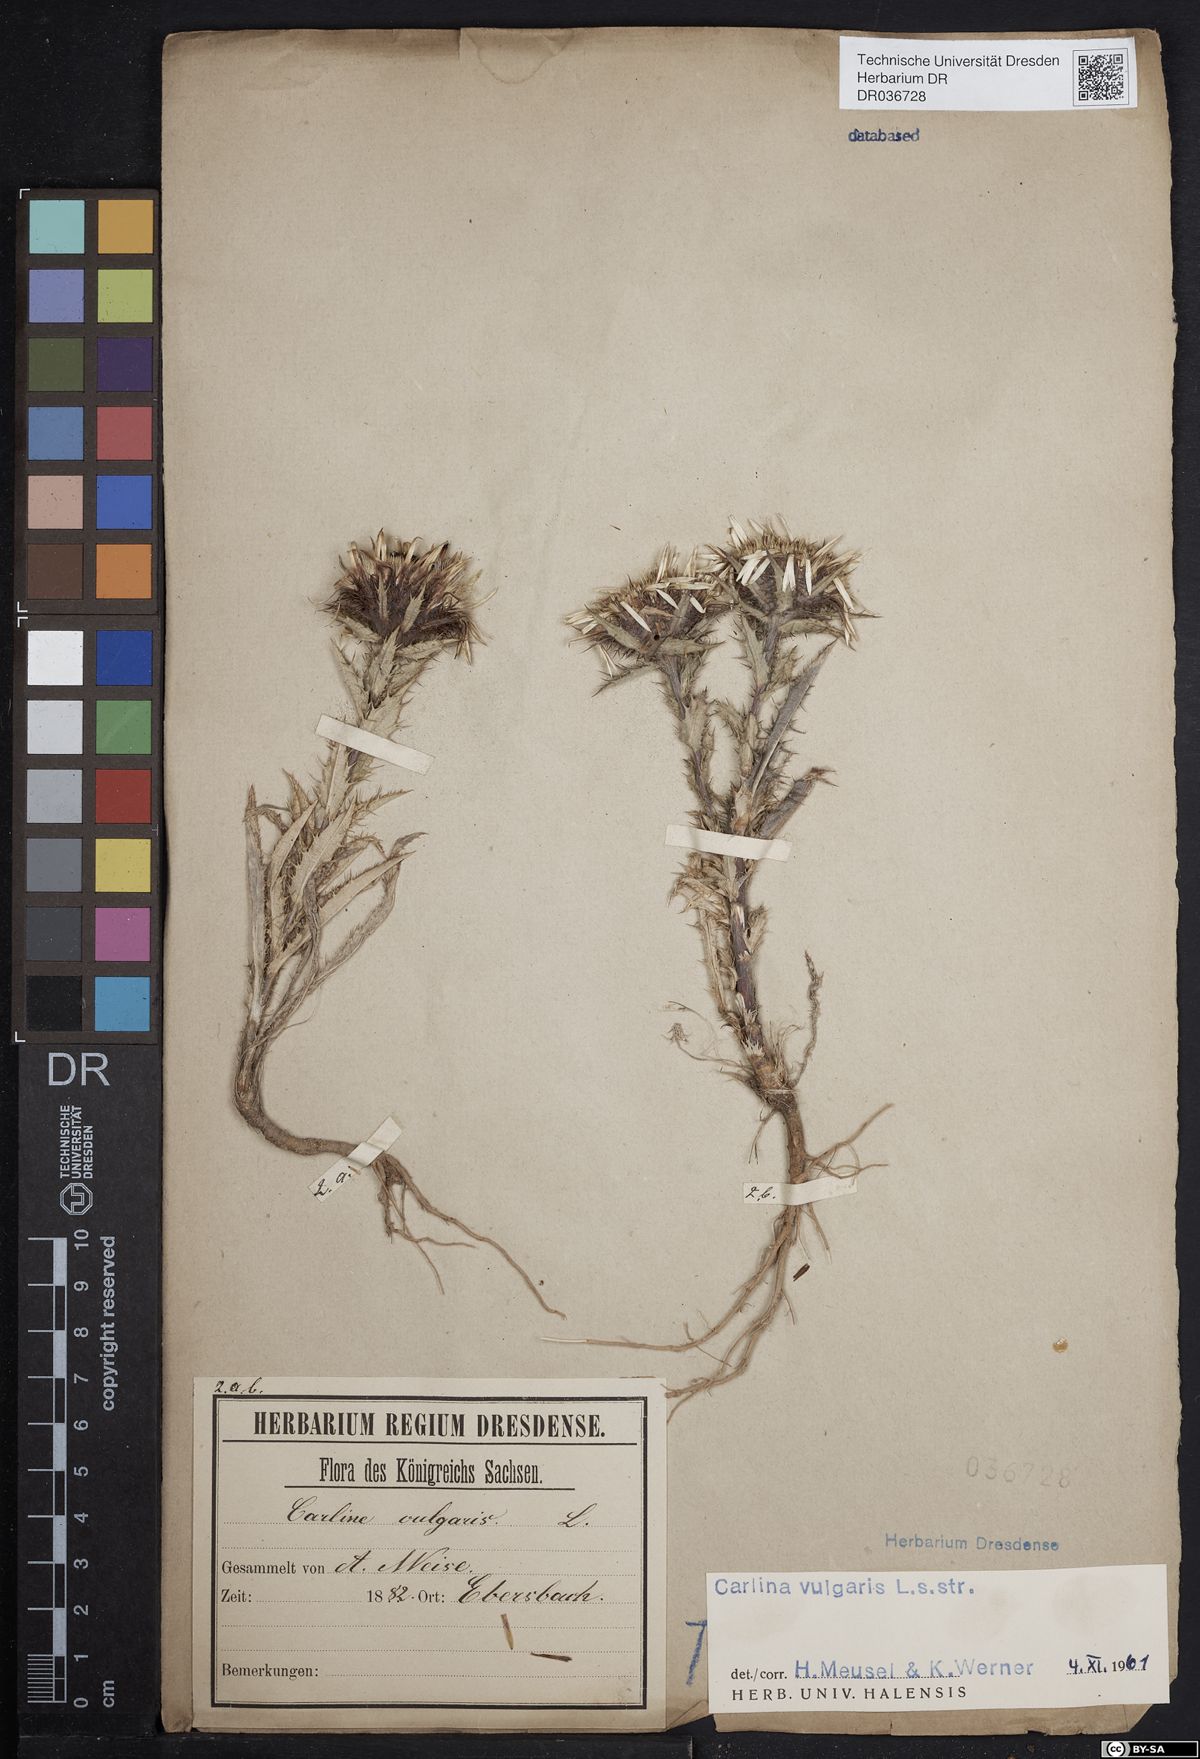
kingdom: Plantae
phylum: Tracheophyta
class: Magnoliopsida
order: Asterales
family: Asteraceae
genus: Carlina
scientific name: Carlina vulgaris
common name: Carline thistle
